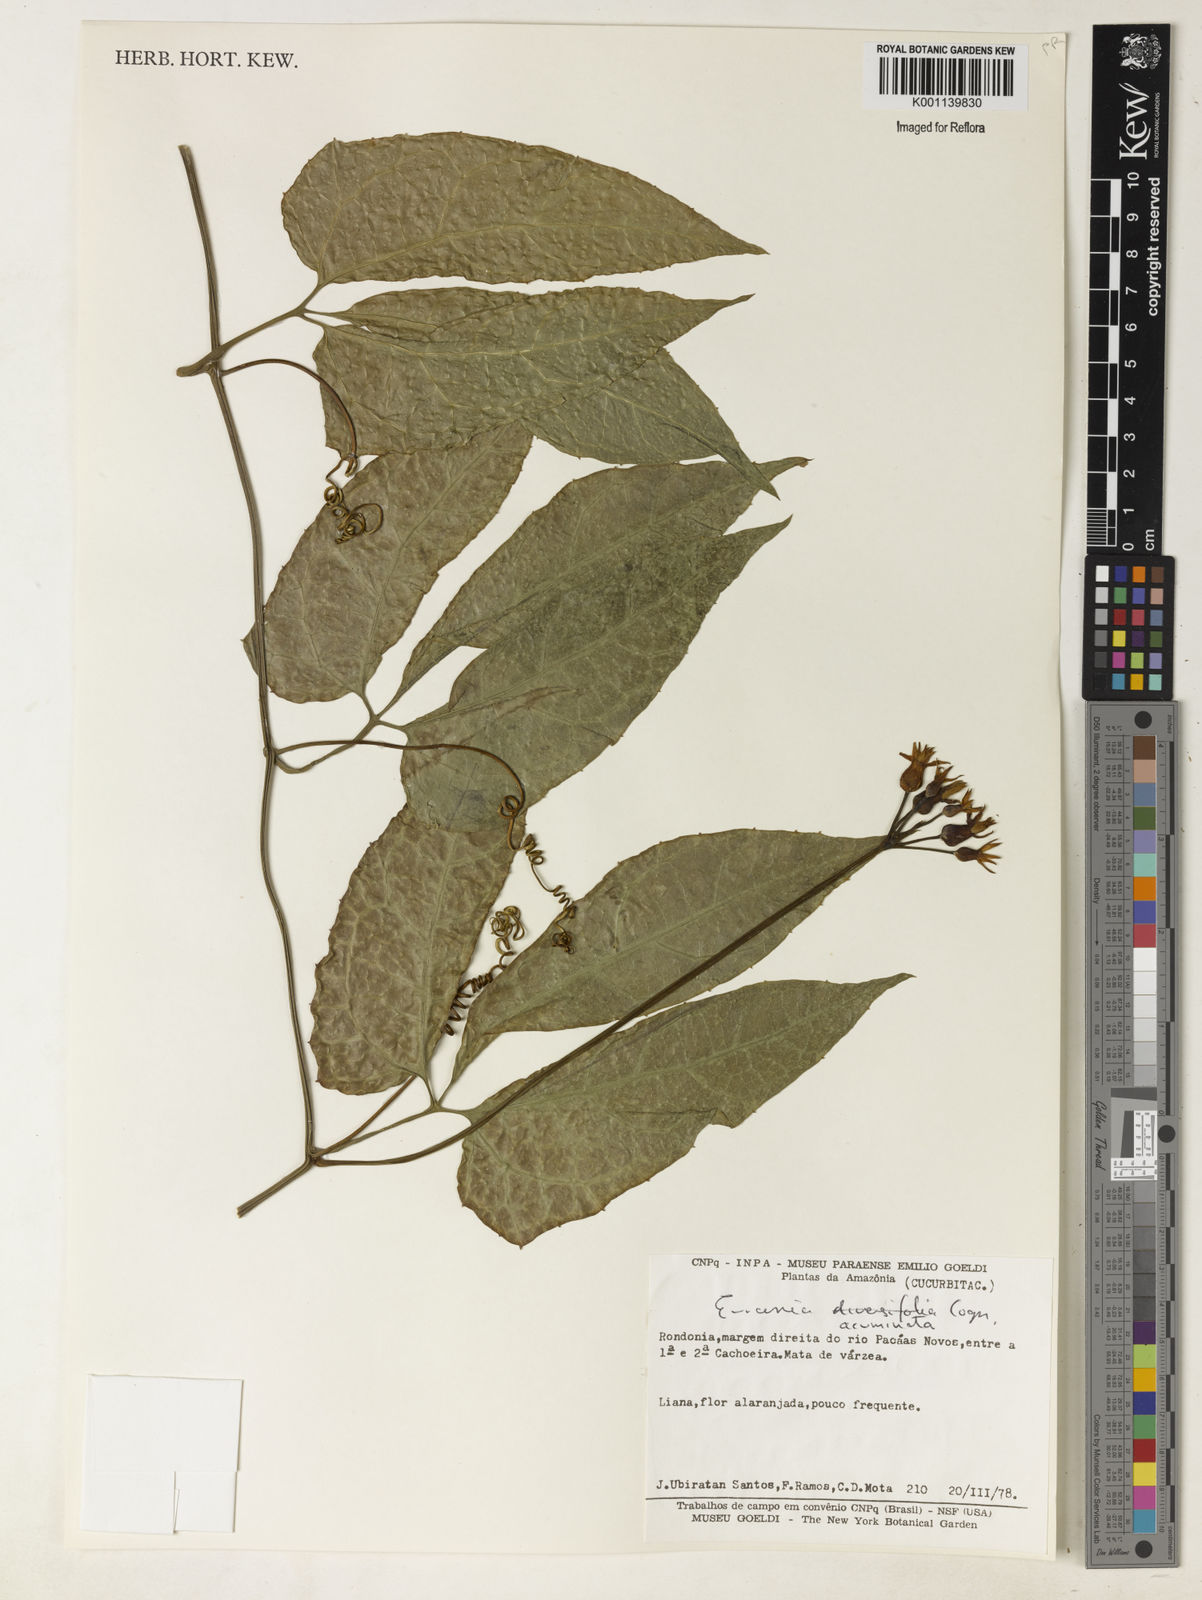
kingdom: Plantae
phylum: Tracheophyta
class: Magnoliopsida
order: Cucurbitales
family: Cucurbitaceae
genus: Gurania
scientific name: Gurania acuminata
